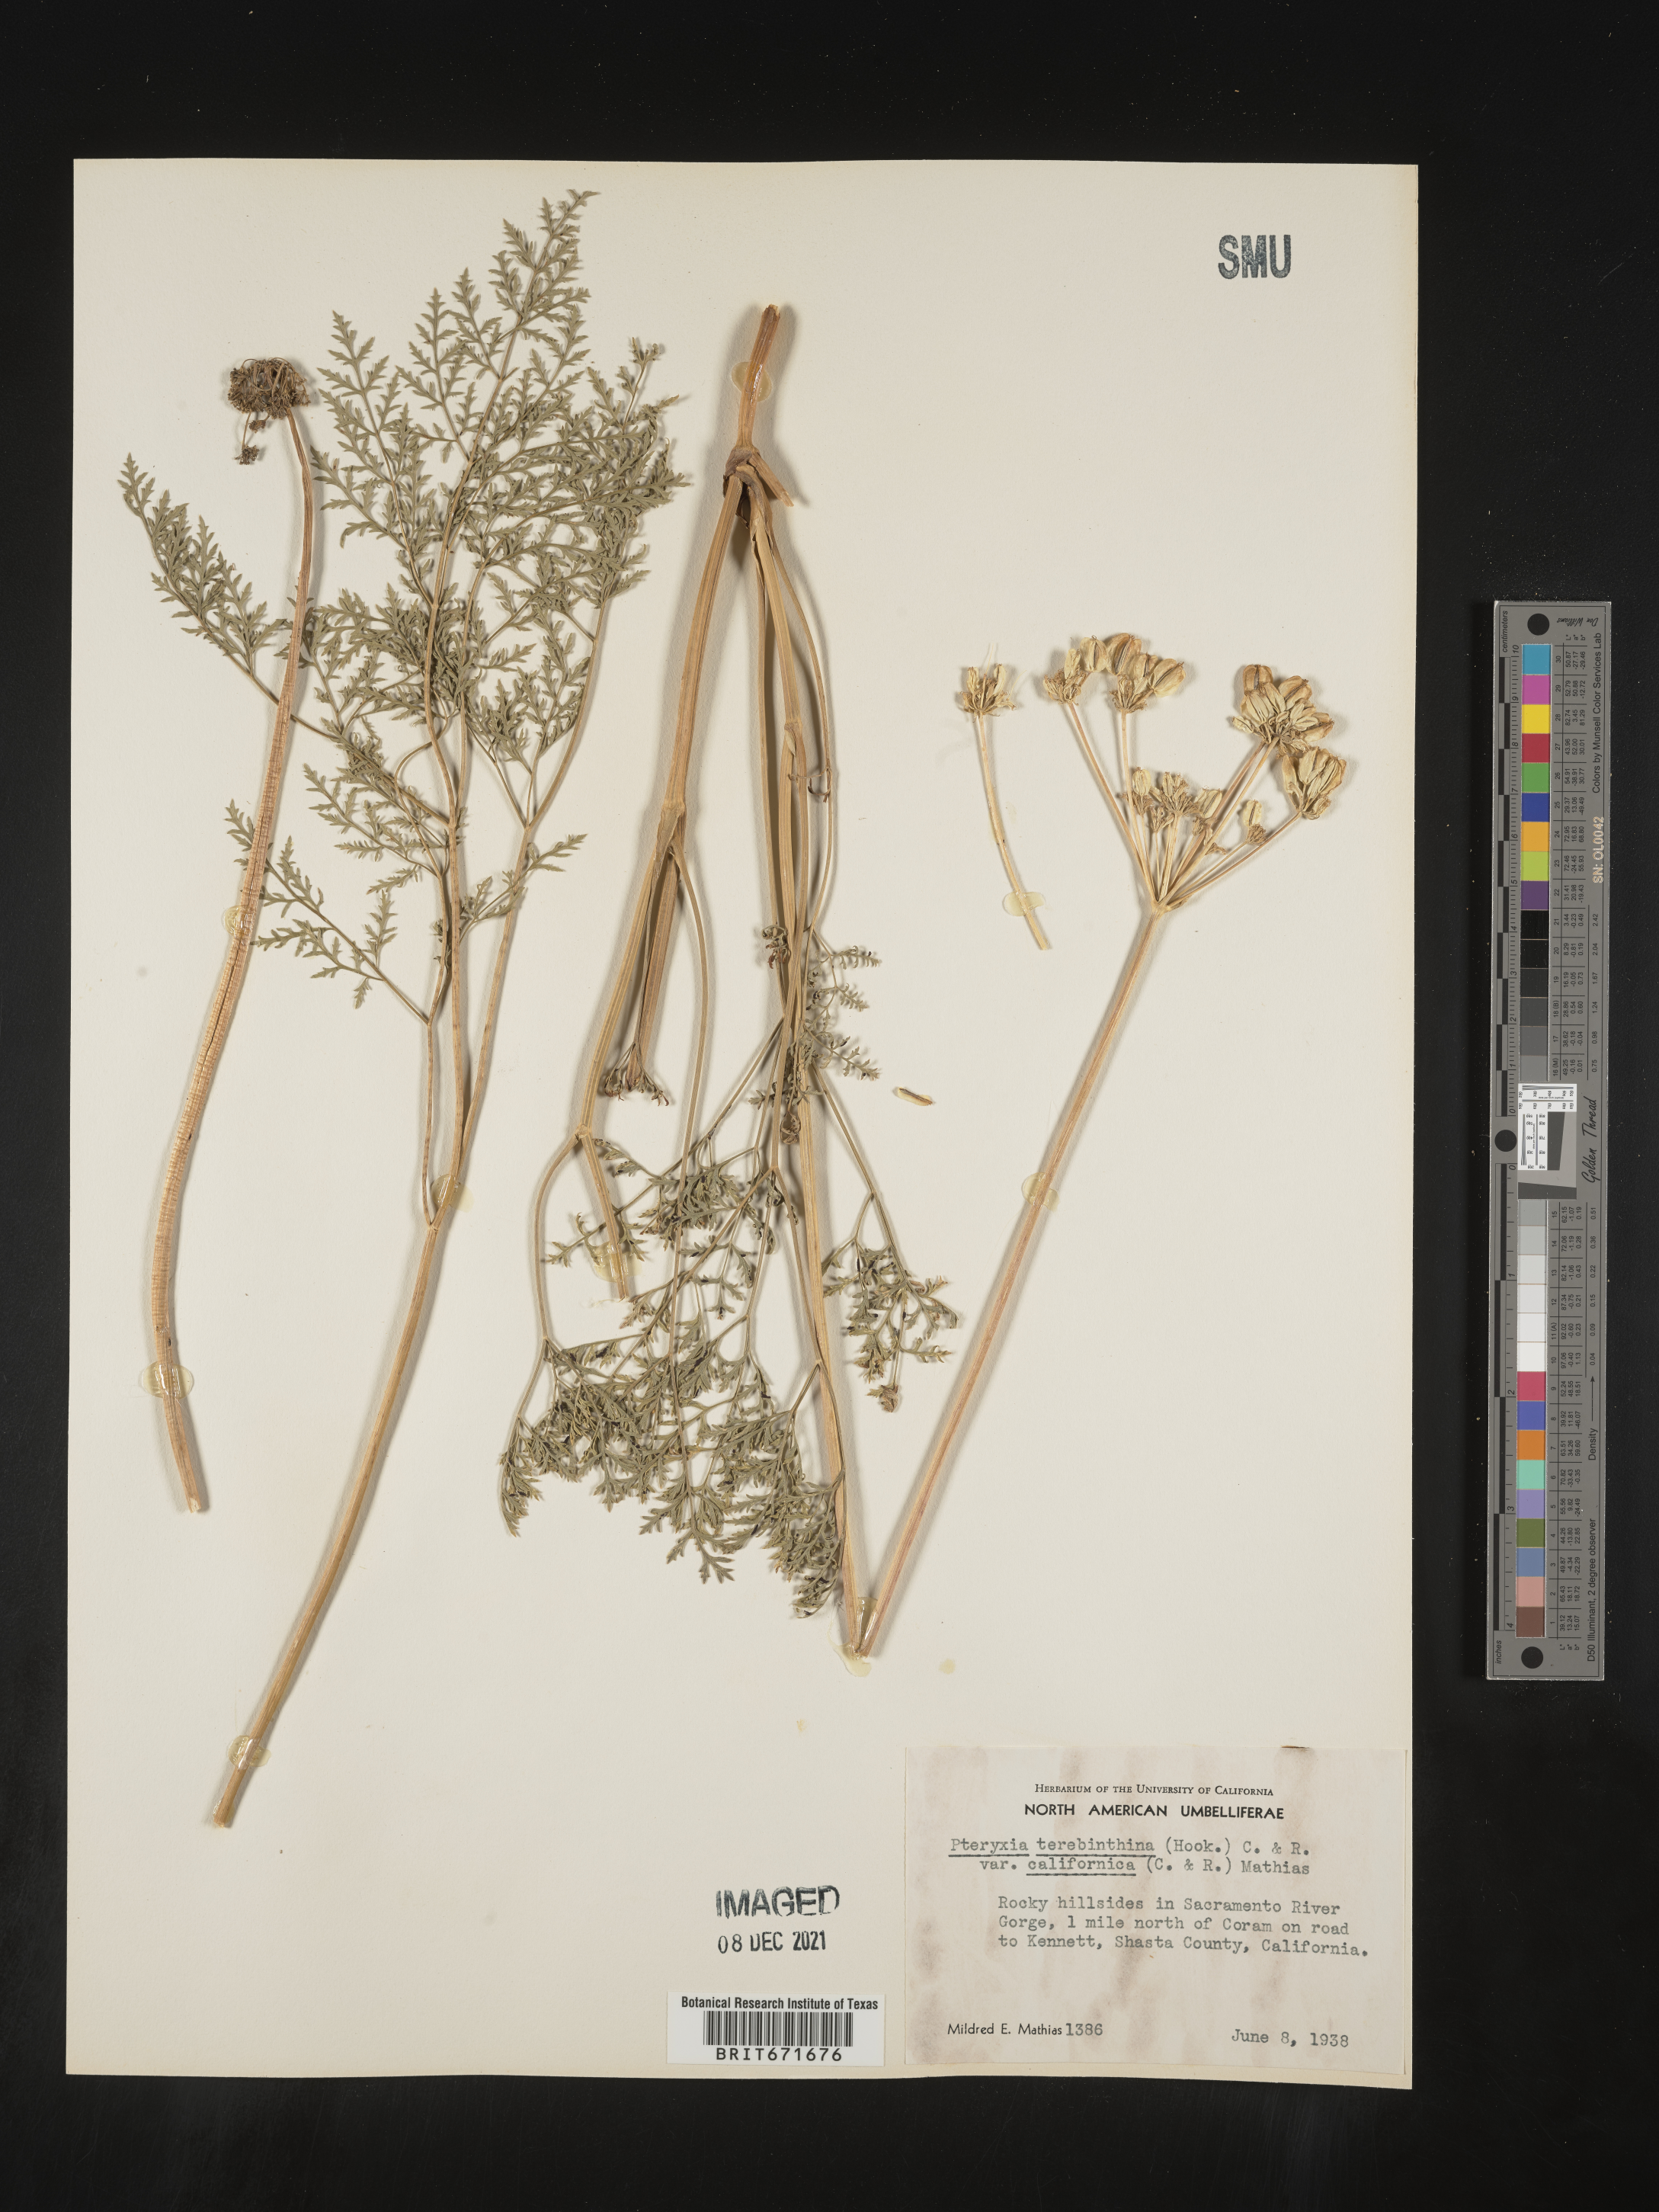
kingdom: Plantae
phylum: Tracheophyta
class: Magnoliopsida
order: Apiales
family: Apiaceae
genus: Pteryxia
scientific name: Pteryxia terebinthina
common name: Turpentine wavewing
